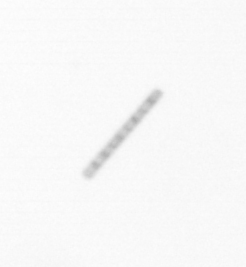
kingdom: Chromista
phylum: Ochrophyta
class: Bacillariophyceae
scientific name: Bacillariophyceae
